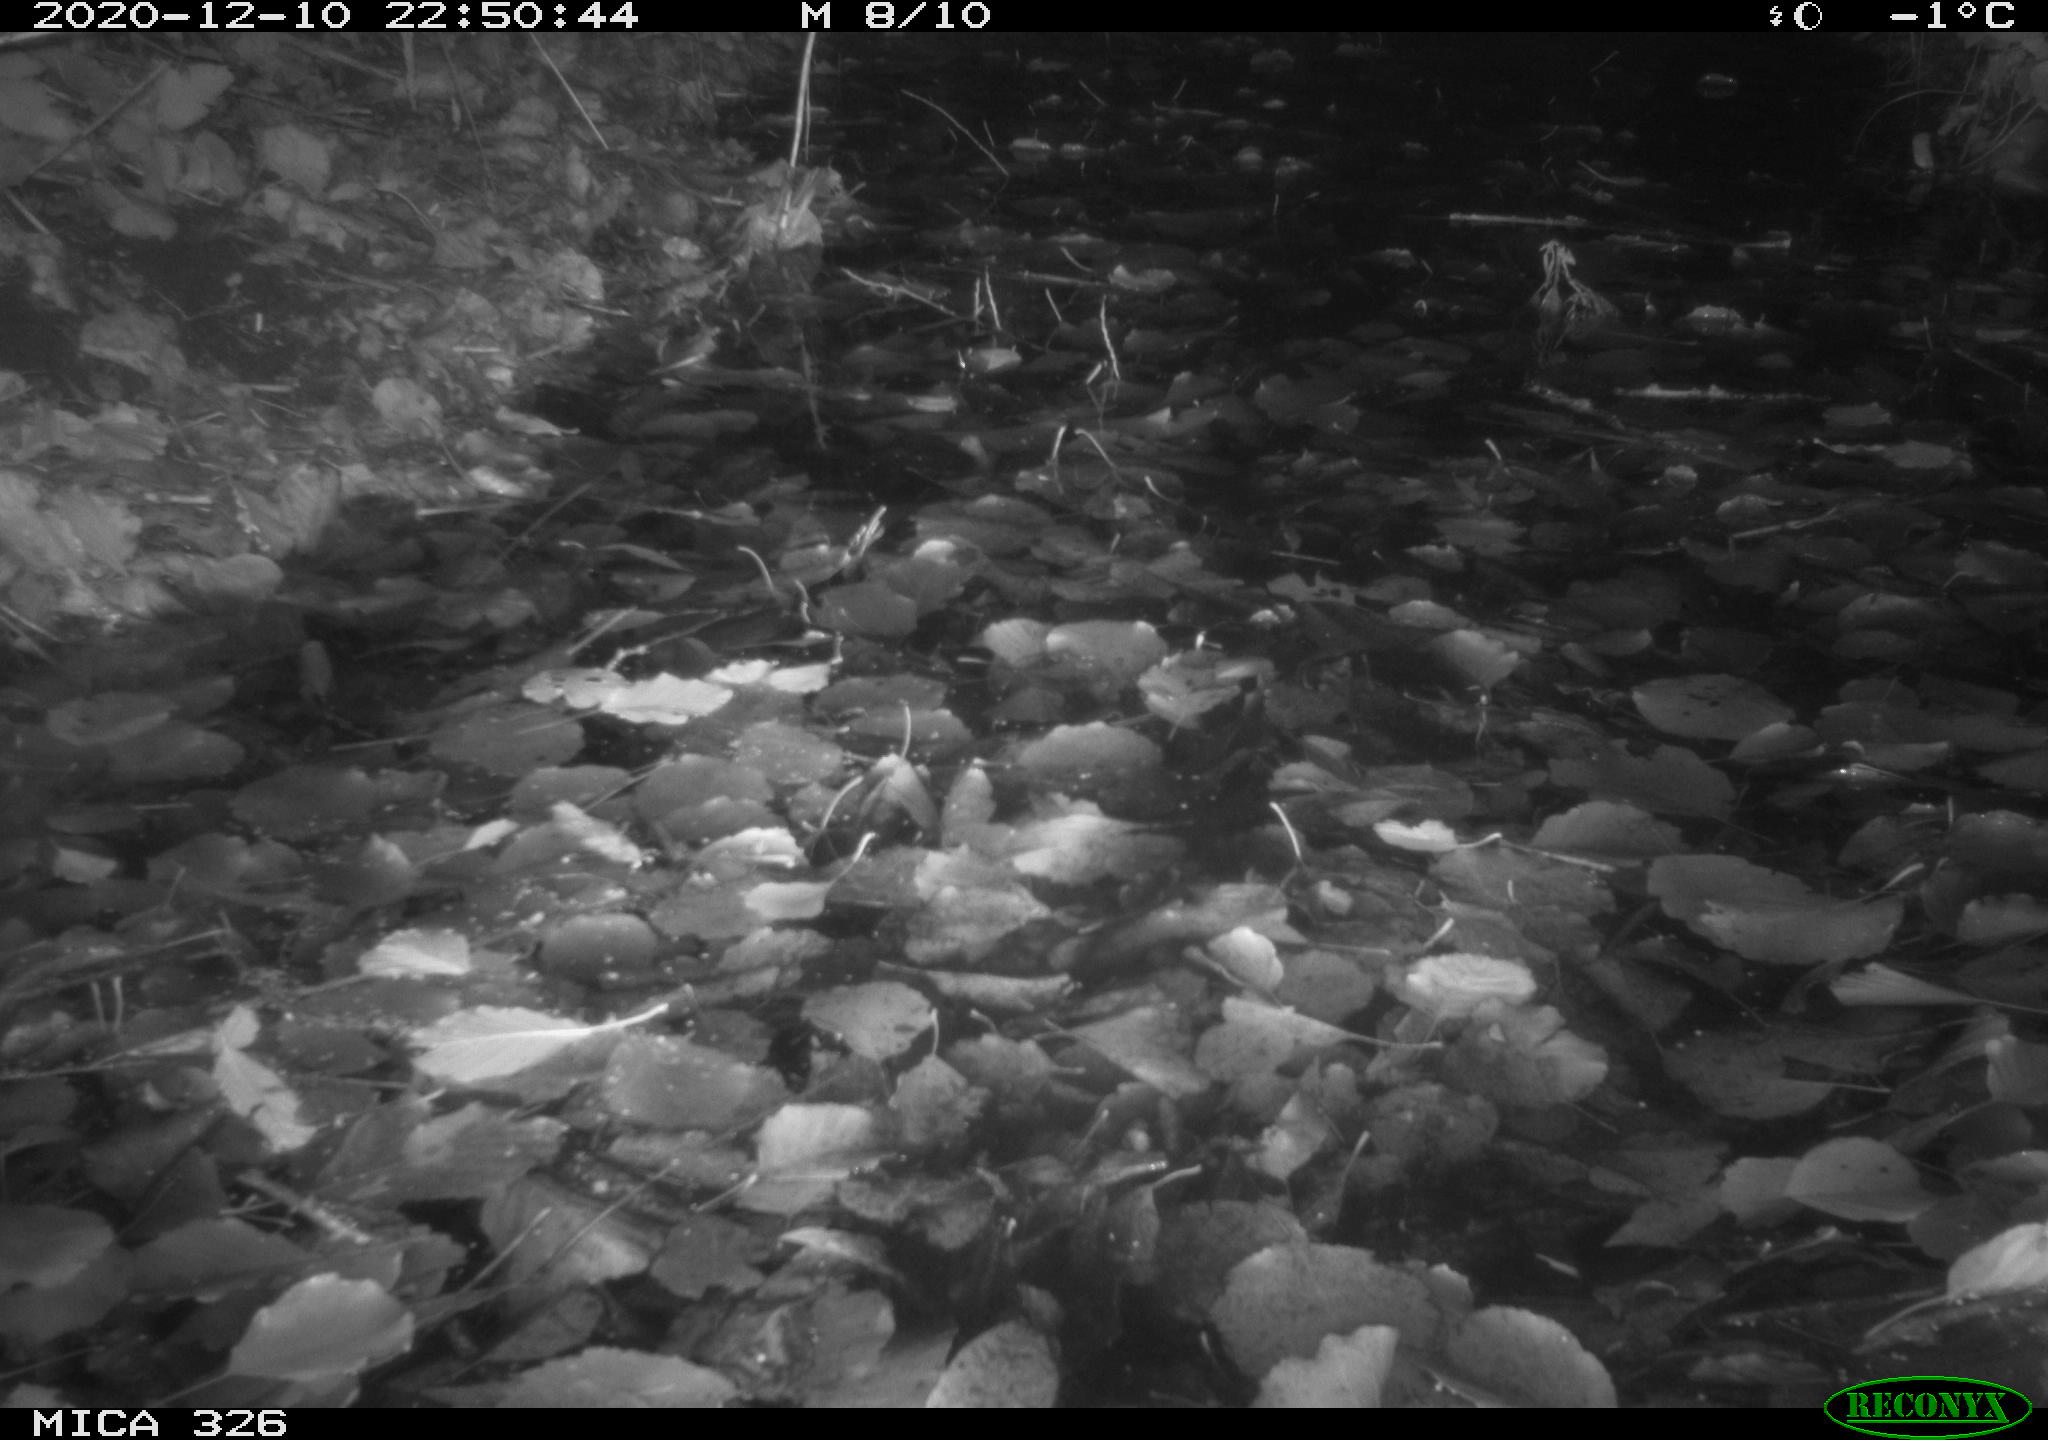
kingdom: Animalia
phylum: Chordata
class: Mammalia
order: Carnivora
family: Mustelidae
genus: Lutra
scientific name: Lutra lutra
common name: European otter
